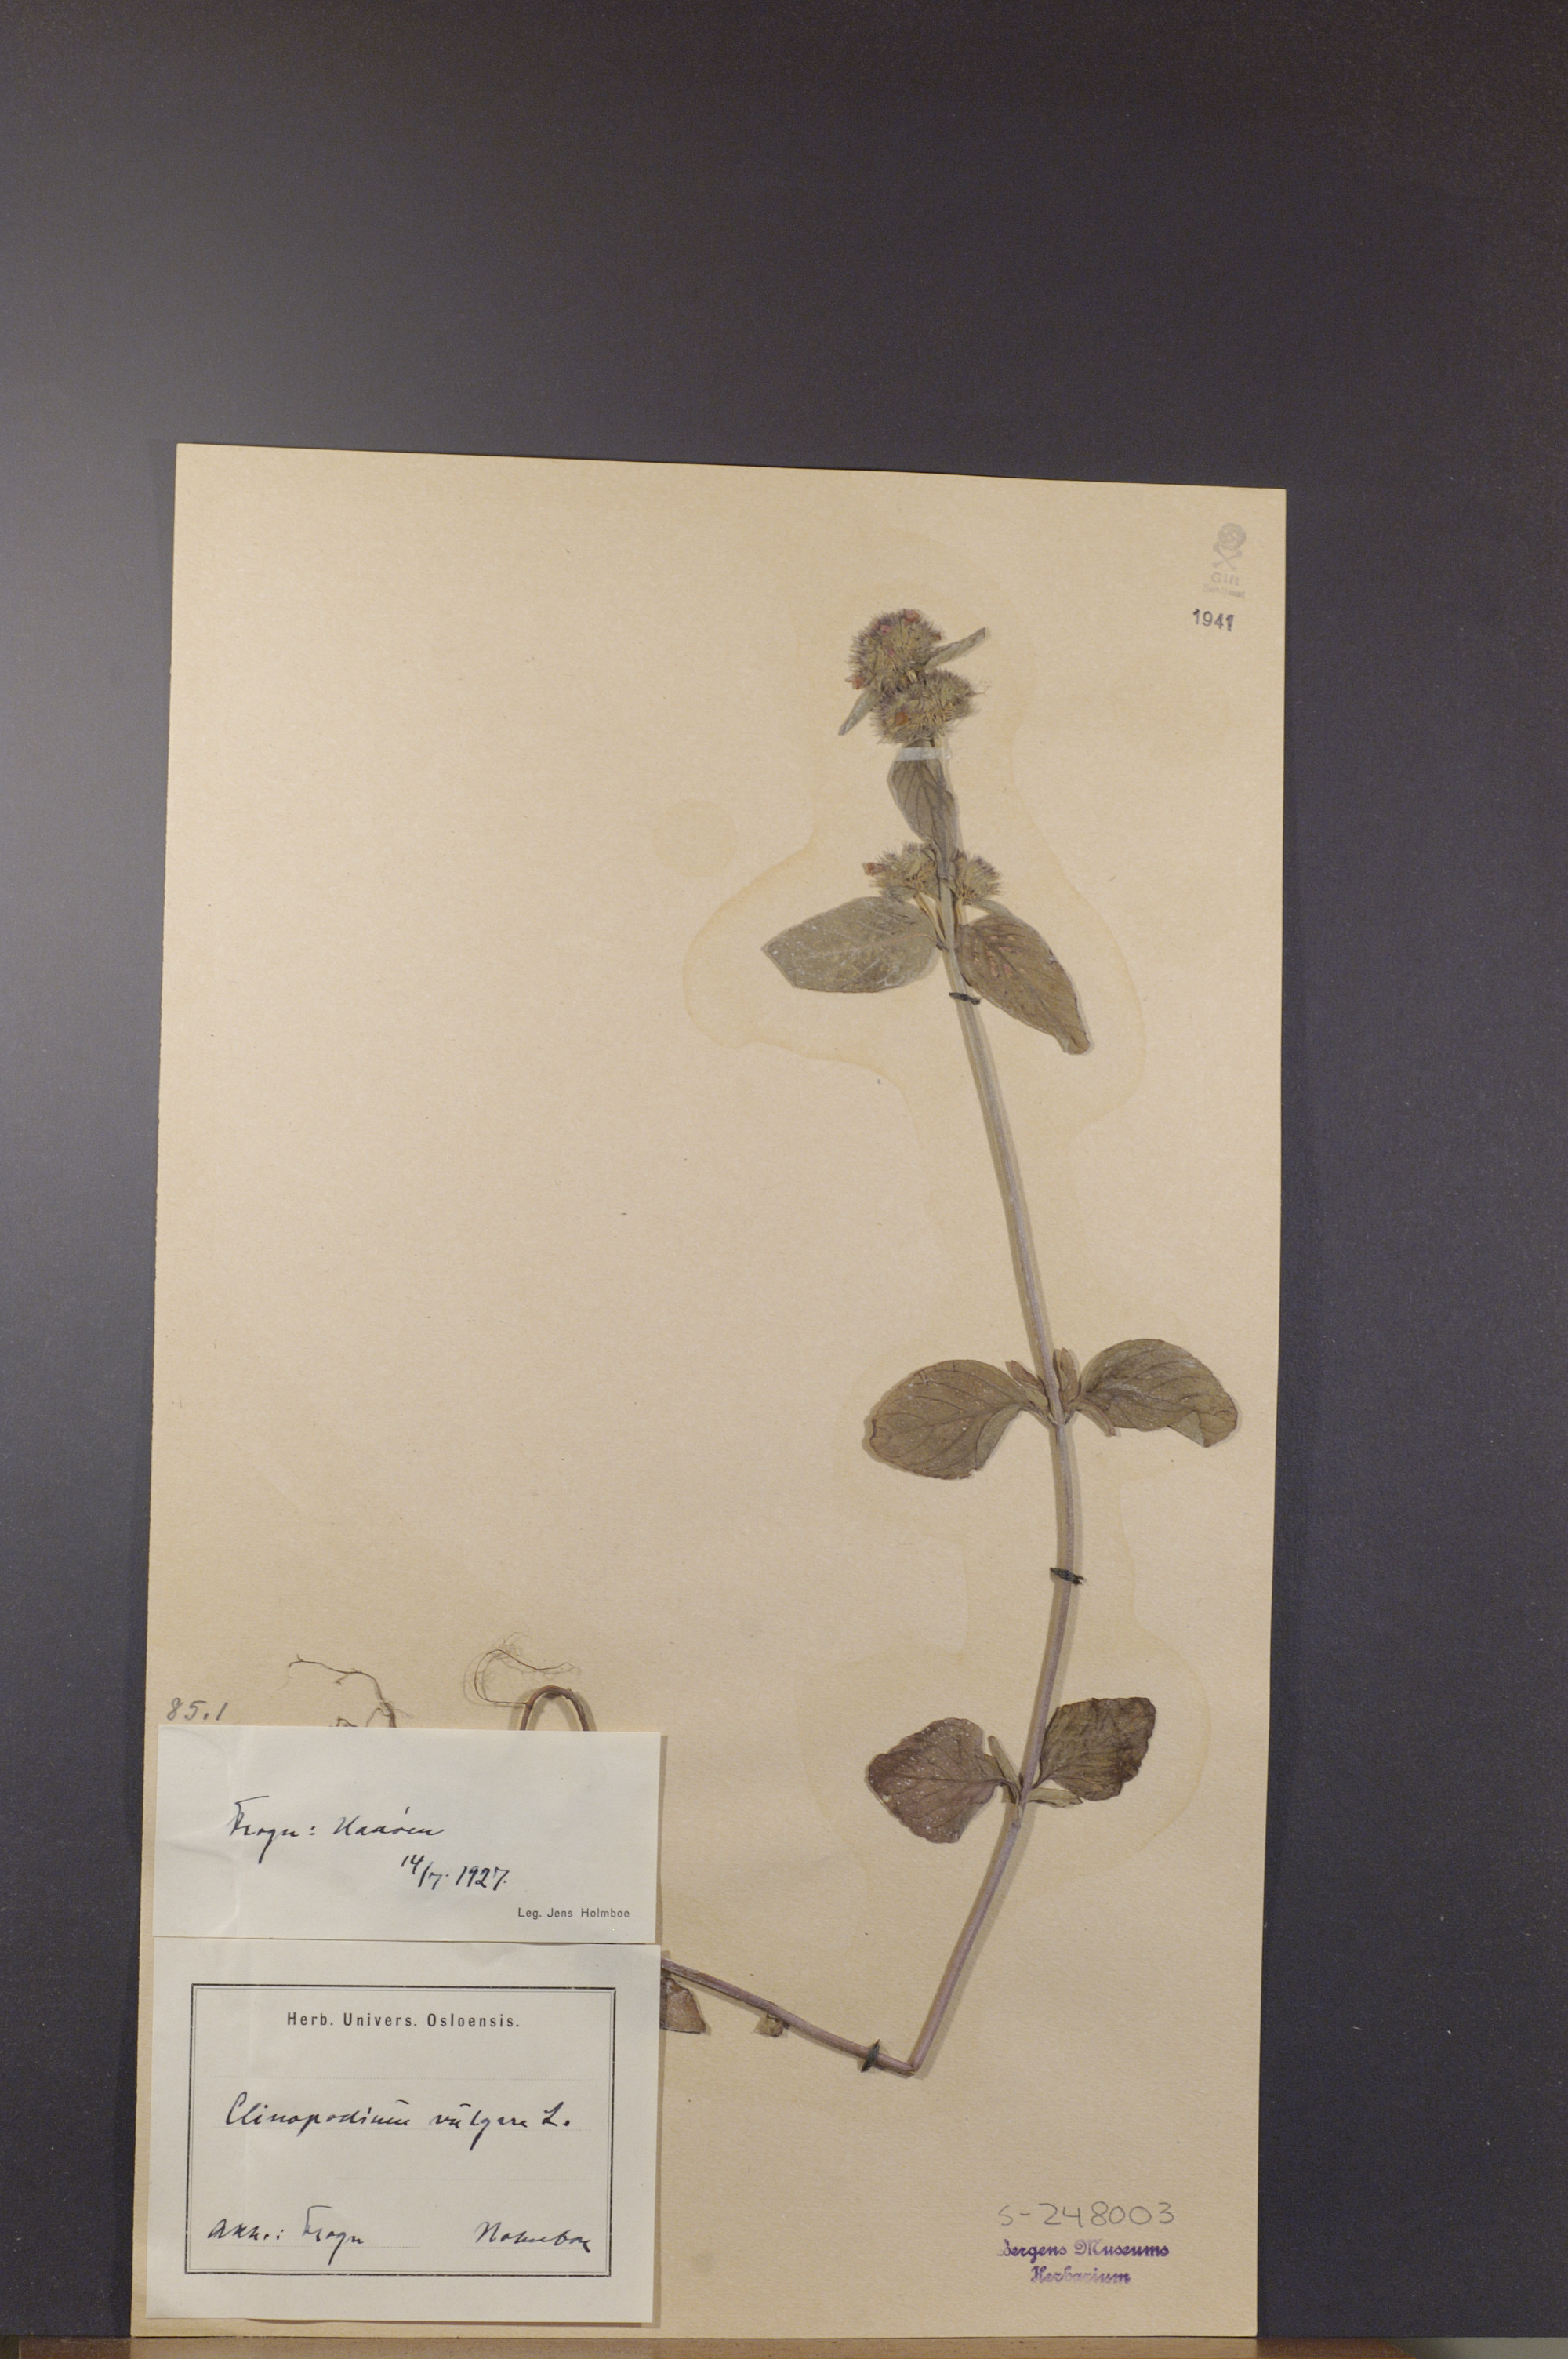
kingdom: Plantae
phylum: Tracheophyta
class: Magnoliopsida
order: Lamiales
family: Lamiaceae
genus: Clinopodium
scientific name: Clinopodium vulgare
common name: Wild basil
